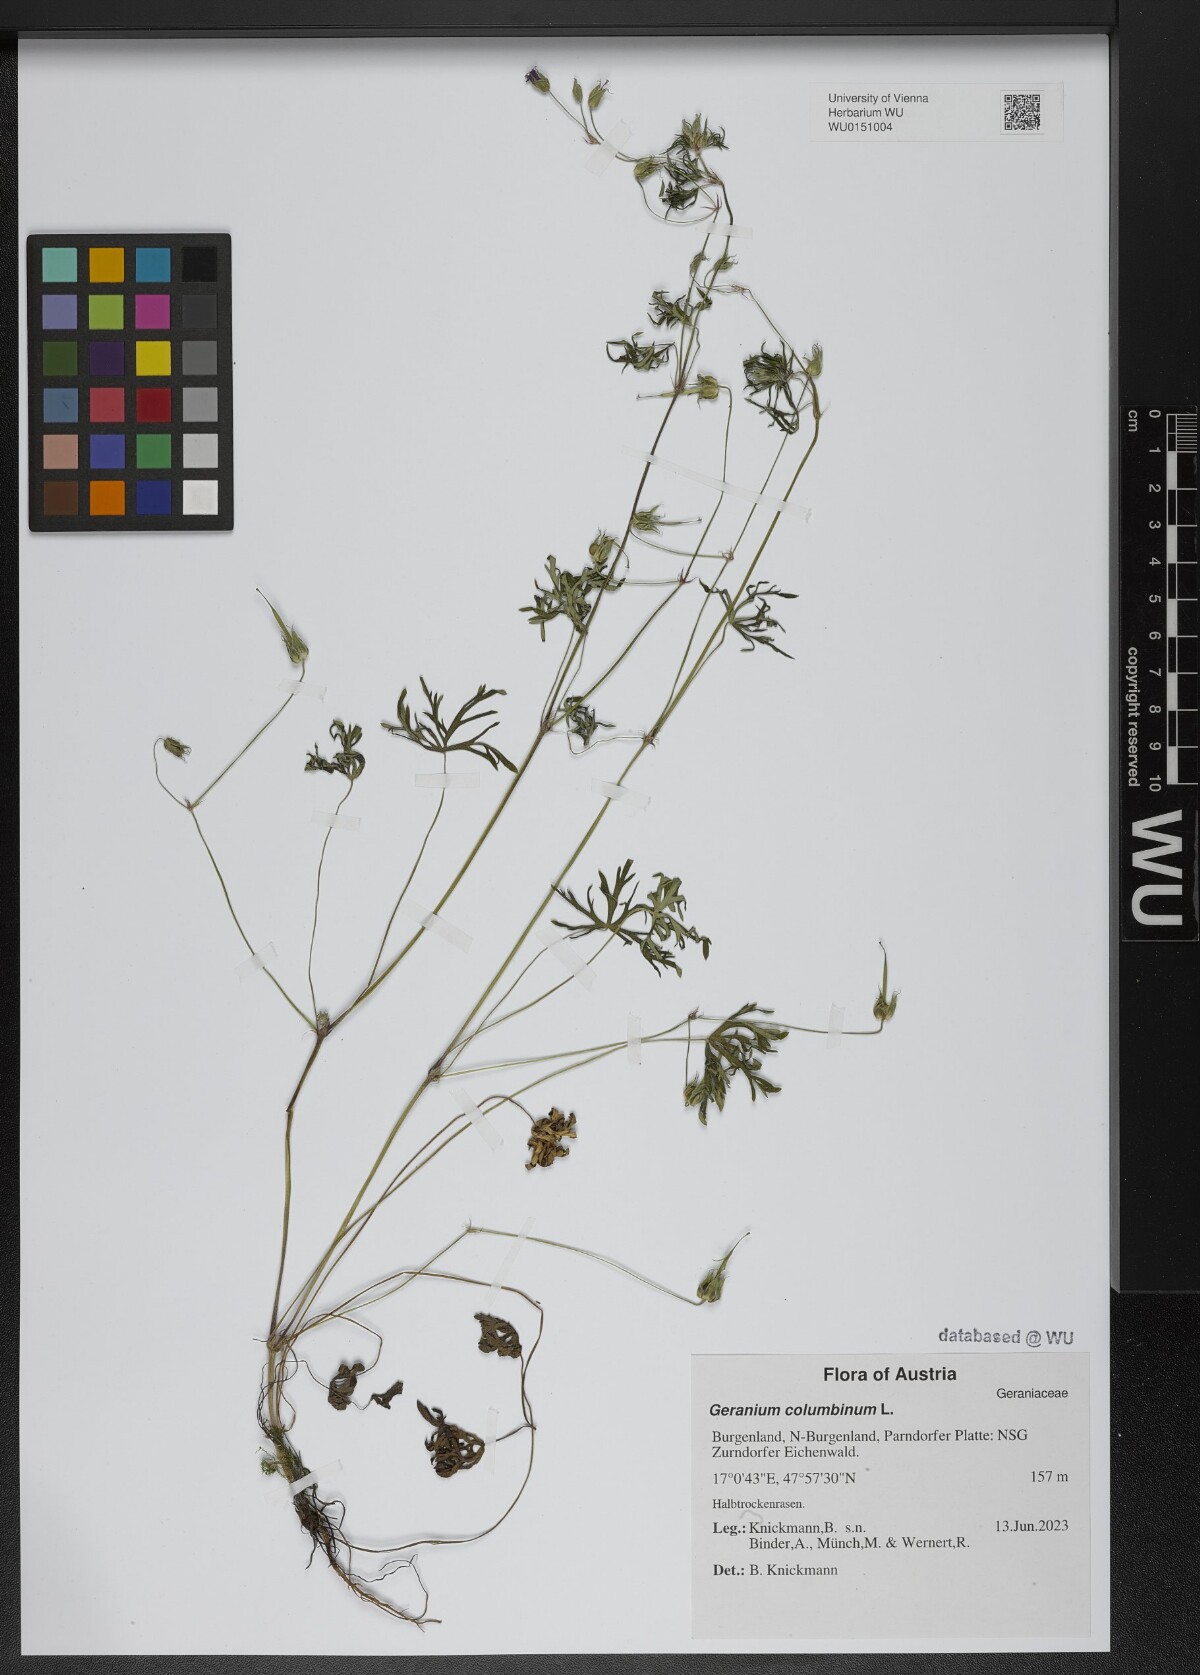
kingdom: Plantae
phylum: Tracheophyta
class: Magnoliopsida
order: Geraniales
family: Geraniaceae
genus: Geranium
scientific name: Geranium columbinum
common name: Long-stalked crane's-bill
